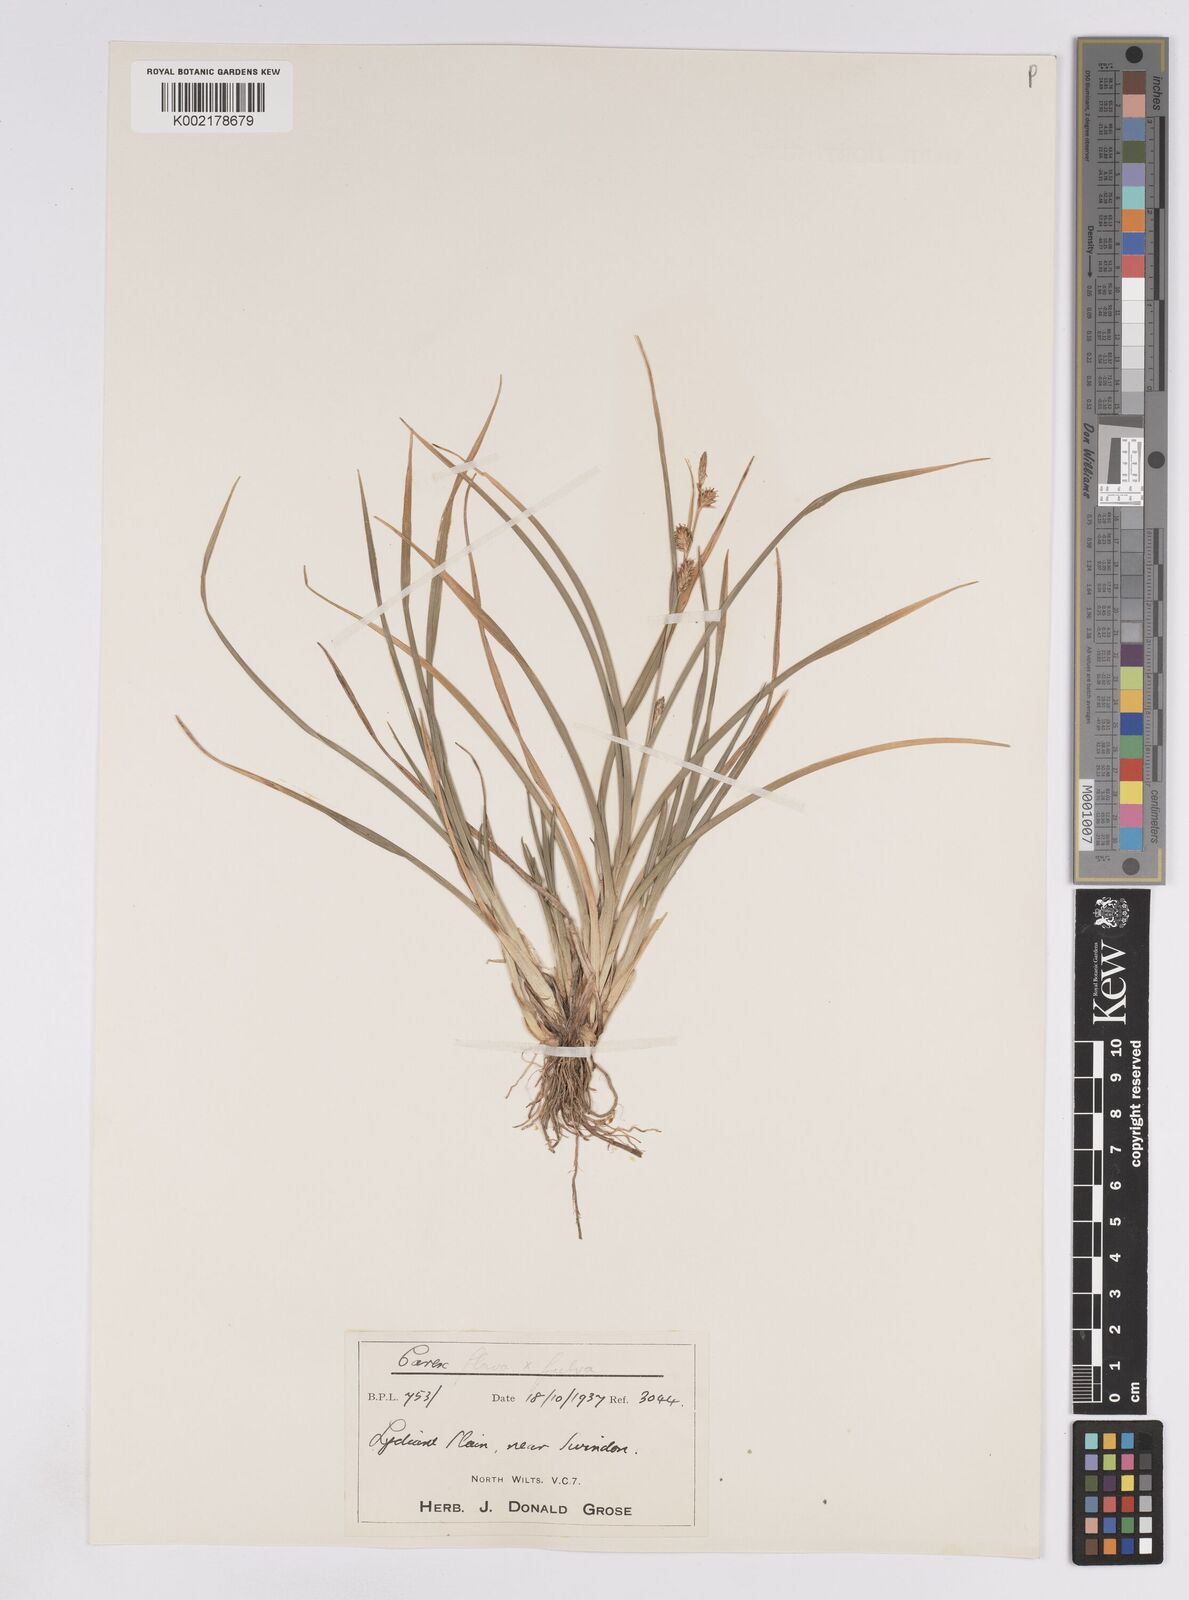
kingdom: Plantae
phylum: Tracheophyta
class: Liliopsida
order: Poales
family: Cyperaceae
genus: Carex
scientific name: Carex lepidocarpa
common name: Long-stalked yellow-sedge
